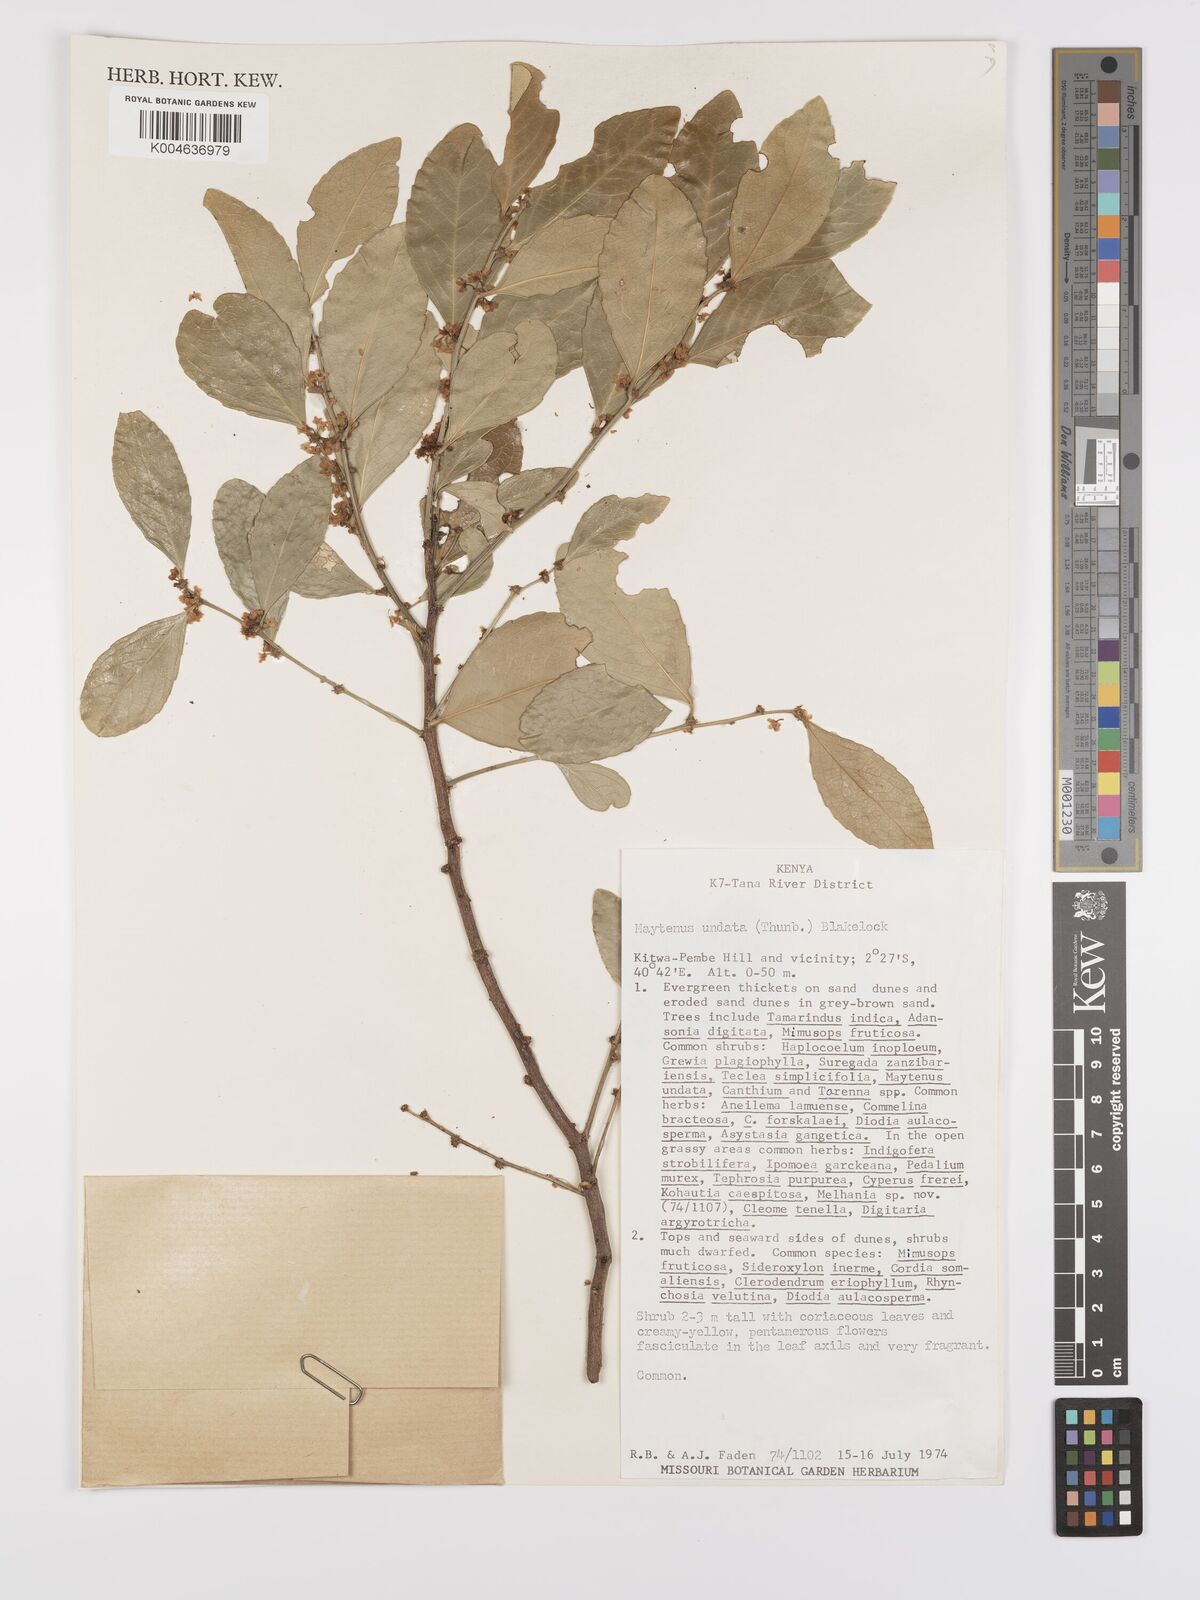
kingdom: Plantae
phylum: Tracheophyta
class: Magnoliopsida
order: Celastrales
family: Celastraceae
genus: Gymnosporia
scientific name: Gymnosporia undata
